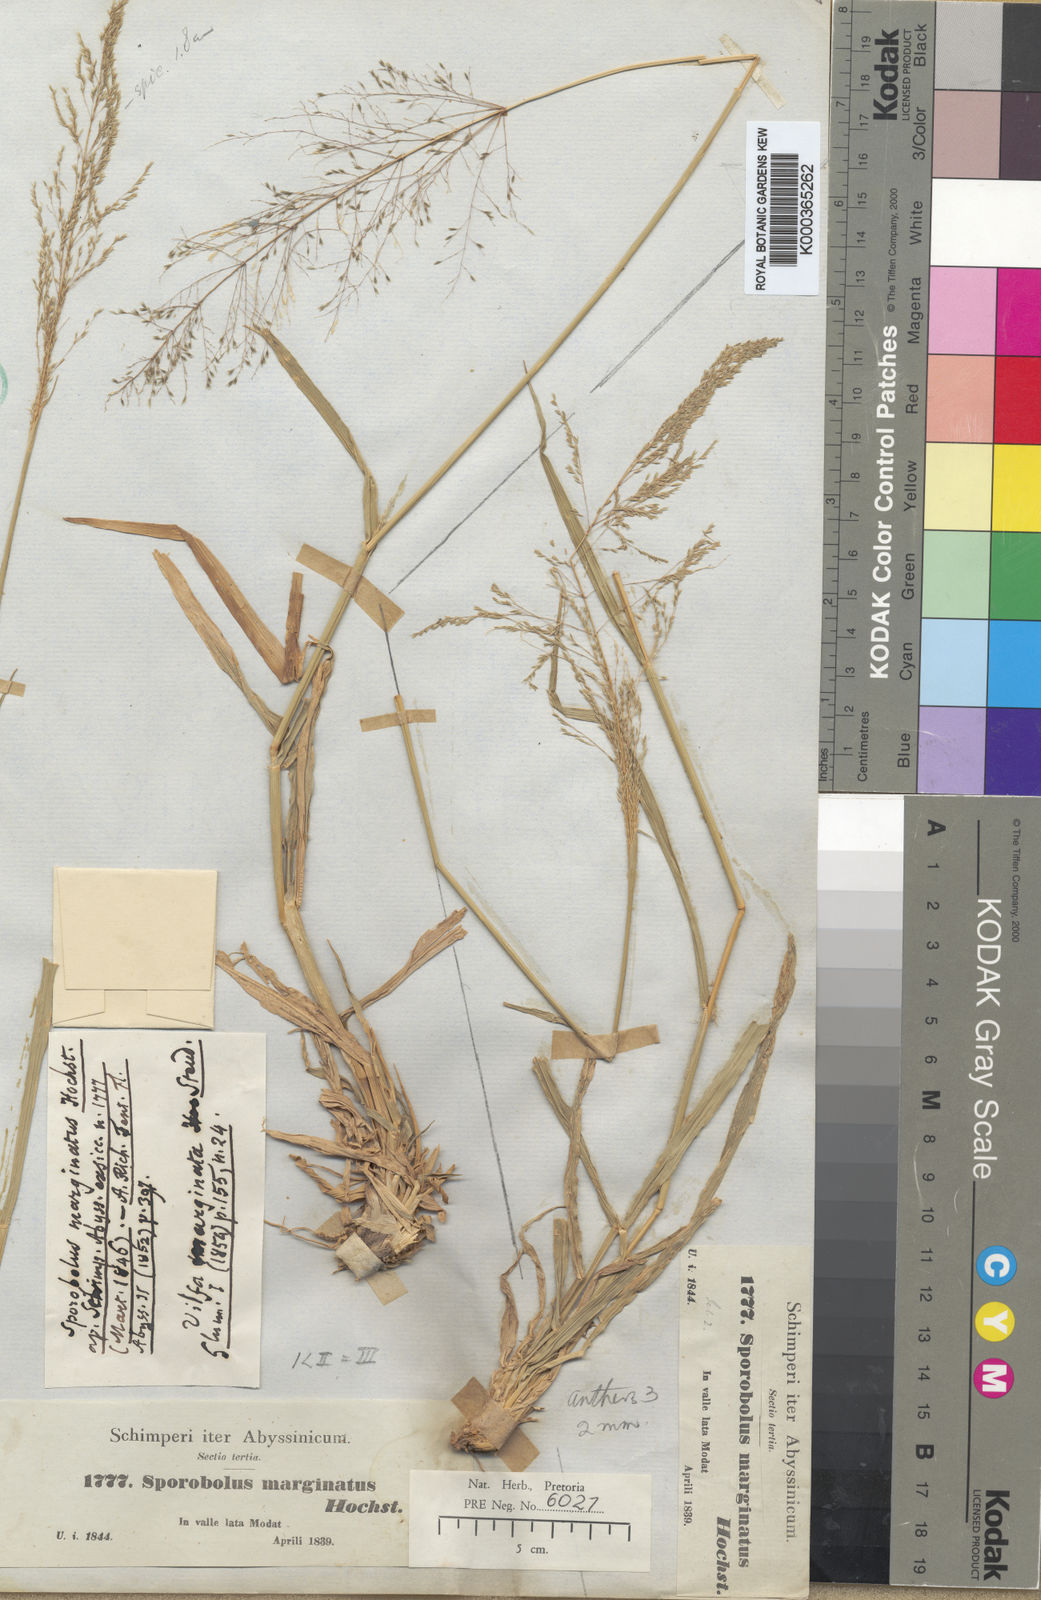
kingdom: Plantae
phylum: Tracheophyta
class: Liliopsida
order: Poales
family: Poaceae
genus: Sporobolus
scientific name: Sporobolus ioclados
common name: Pan dropseed
